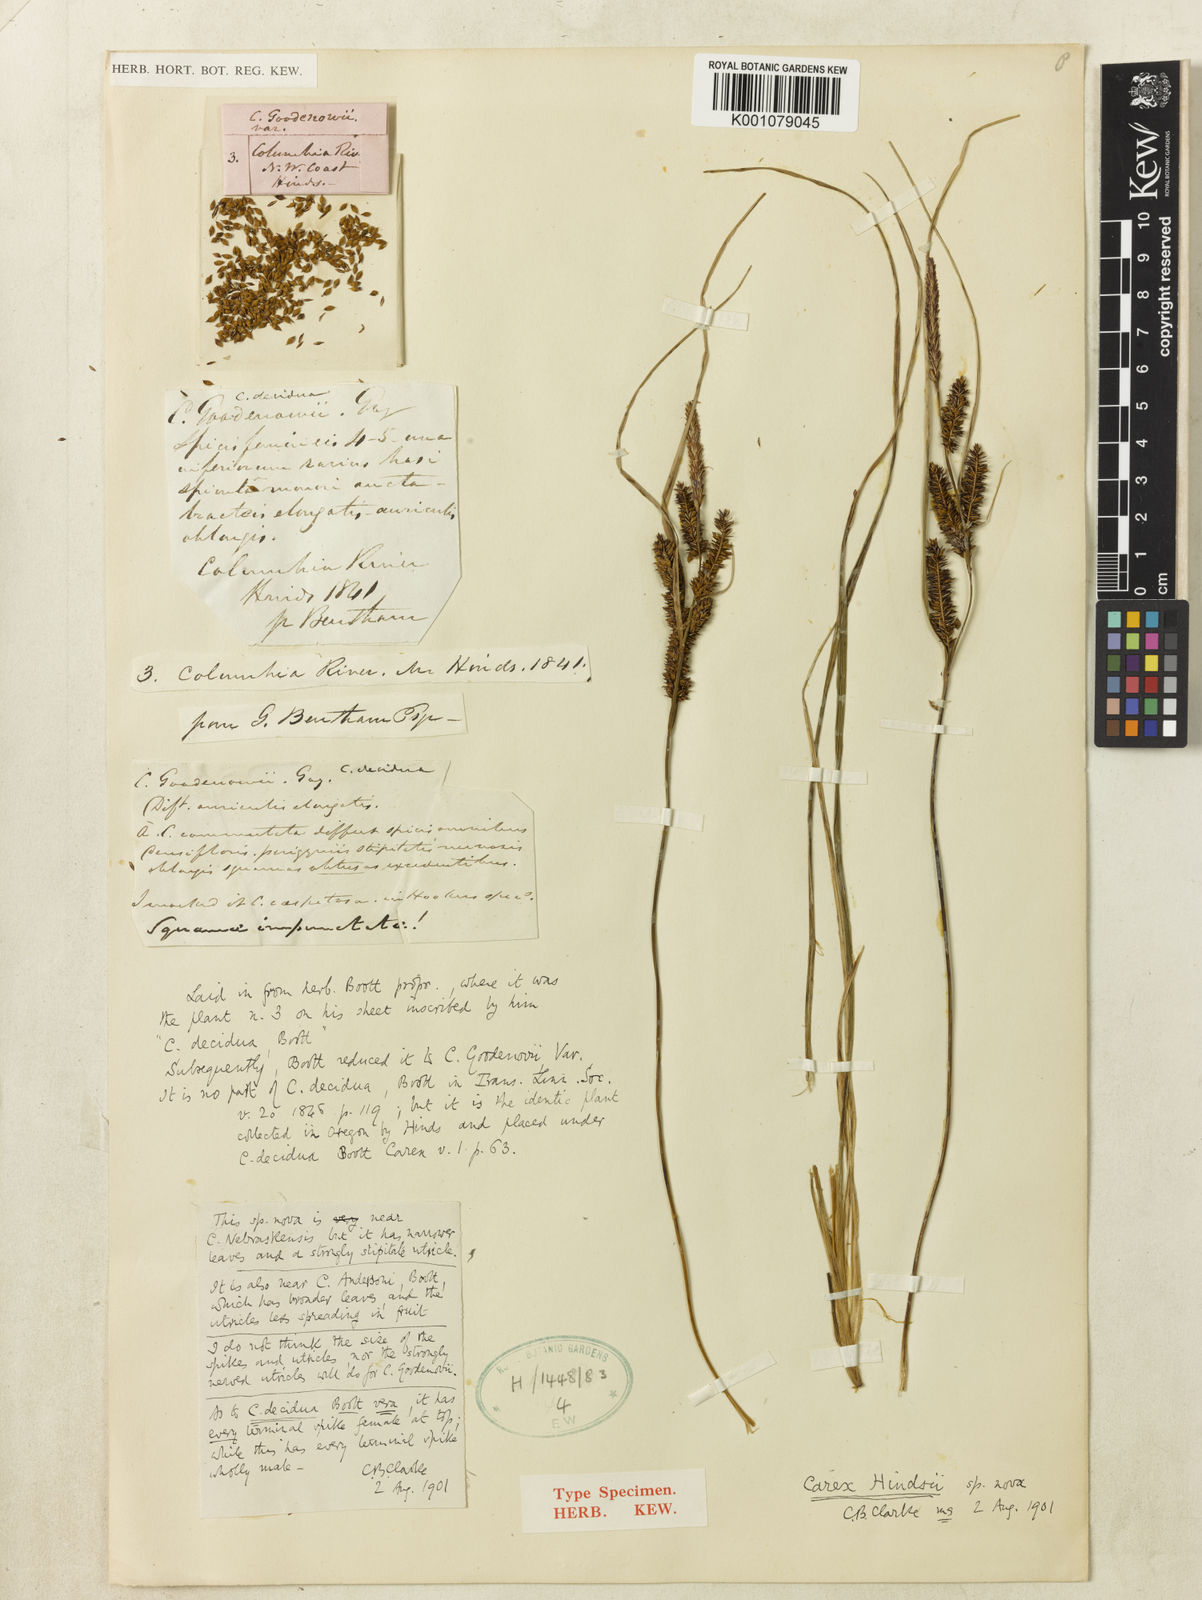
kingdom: Plantae
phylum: Tracheophyta
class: Liliopsida
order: Poales
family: Cyperaceae
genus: Carex
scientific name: Carex kelloggii
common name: Kellogg's sedge
